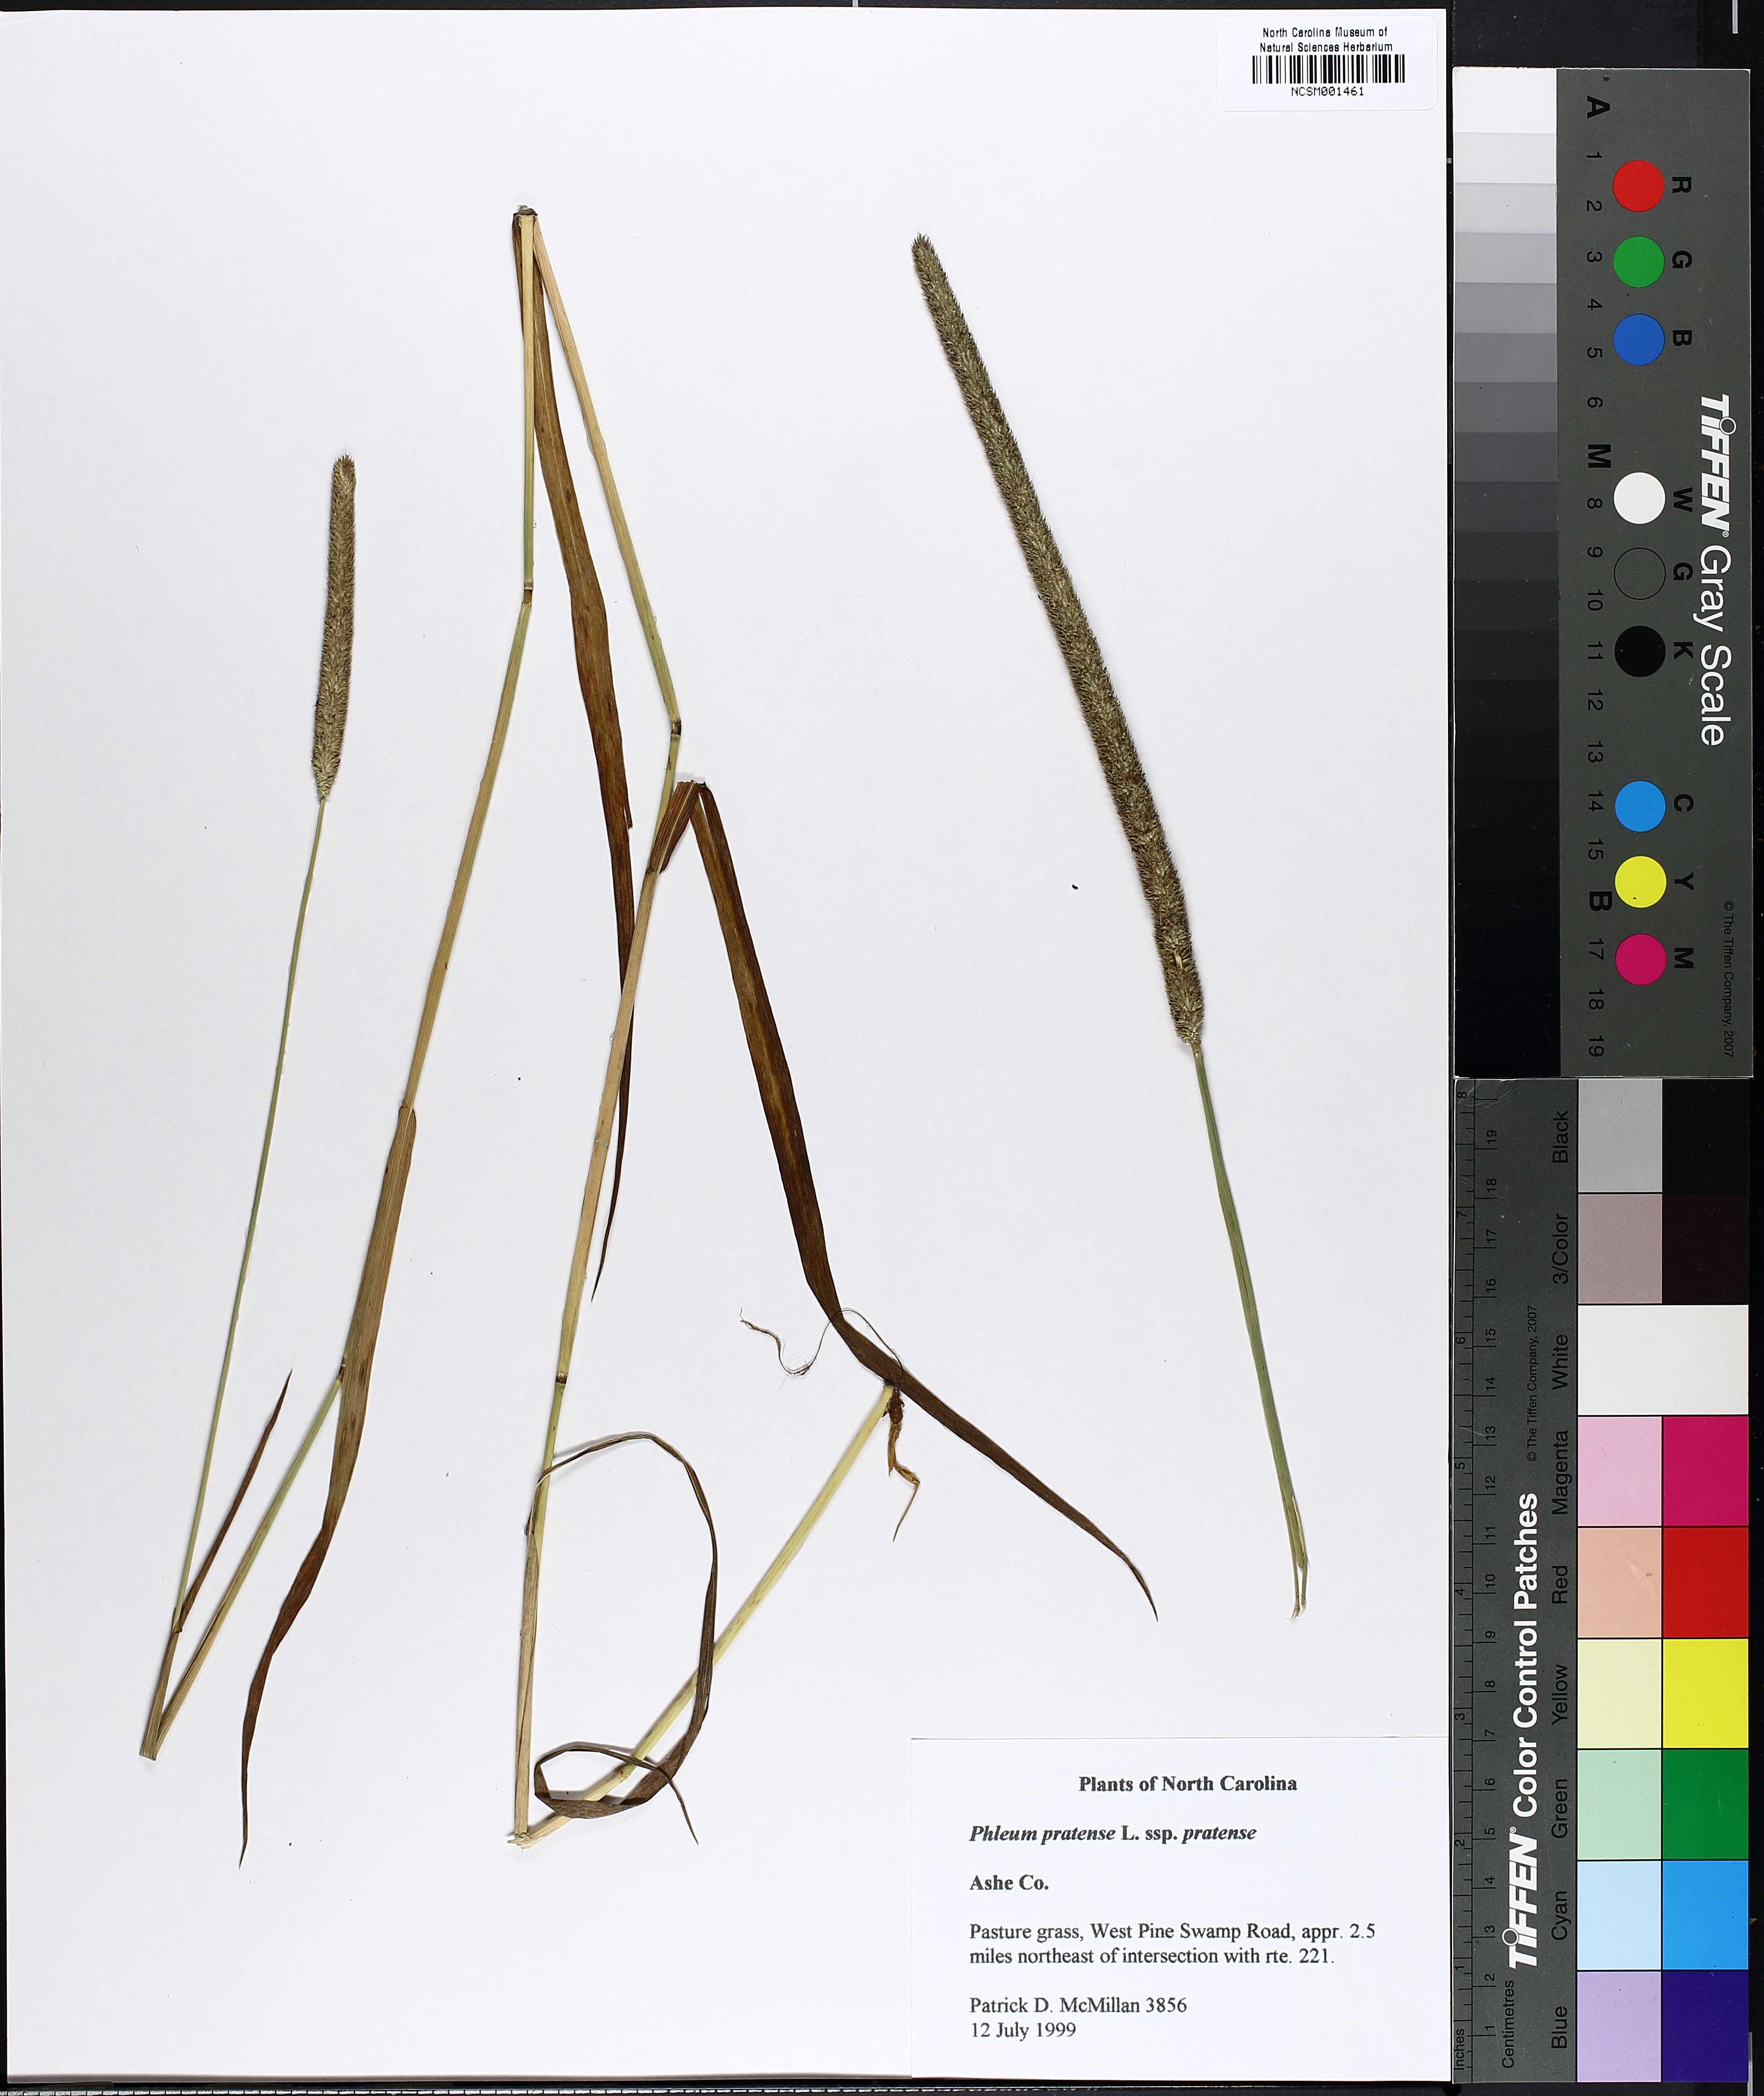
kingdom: Plantae
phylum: Tracheophyta
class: Liliopsida
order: Poales
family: Poaceae
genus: Phleum
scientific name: Phleum pratense
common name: Timothy grass
